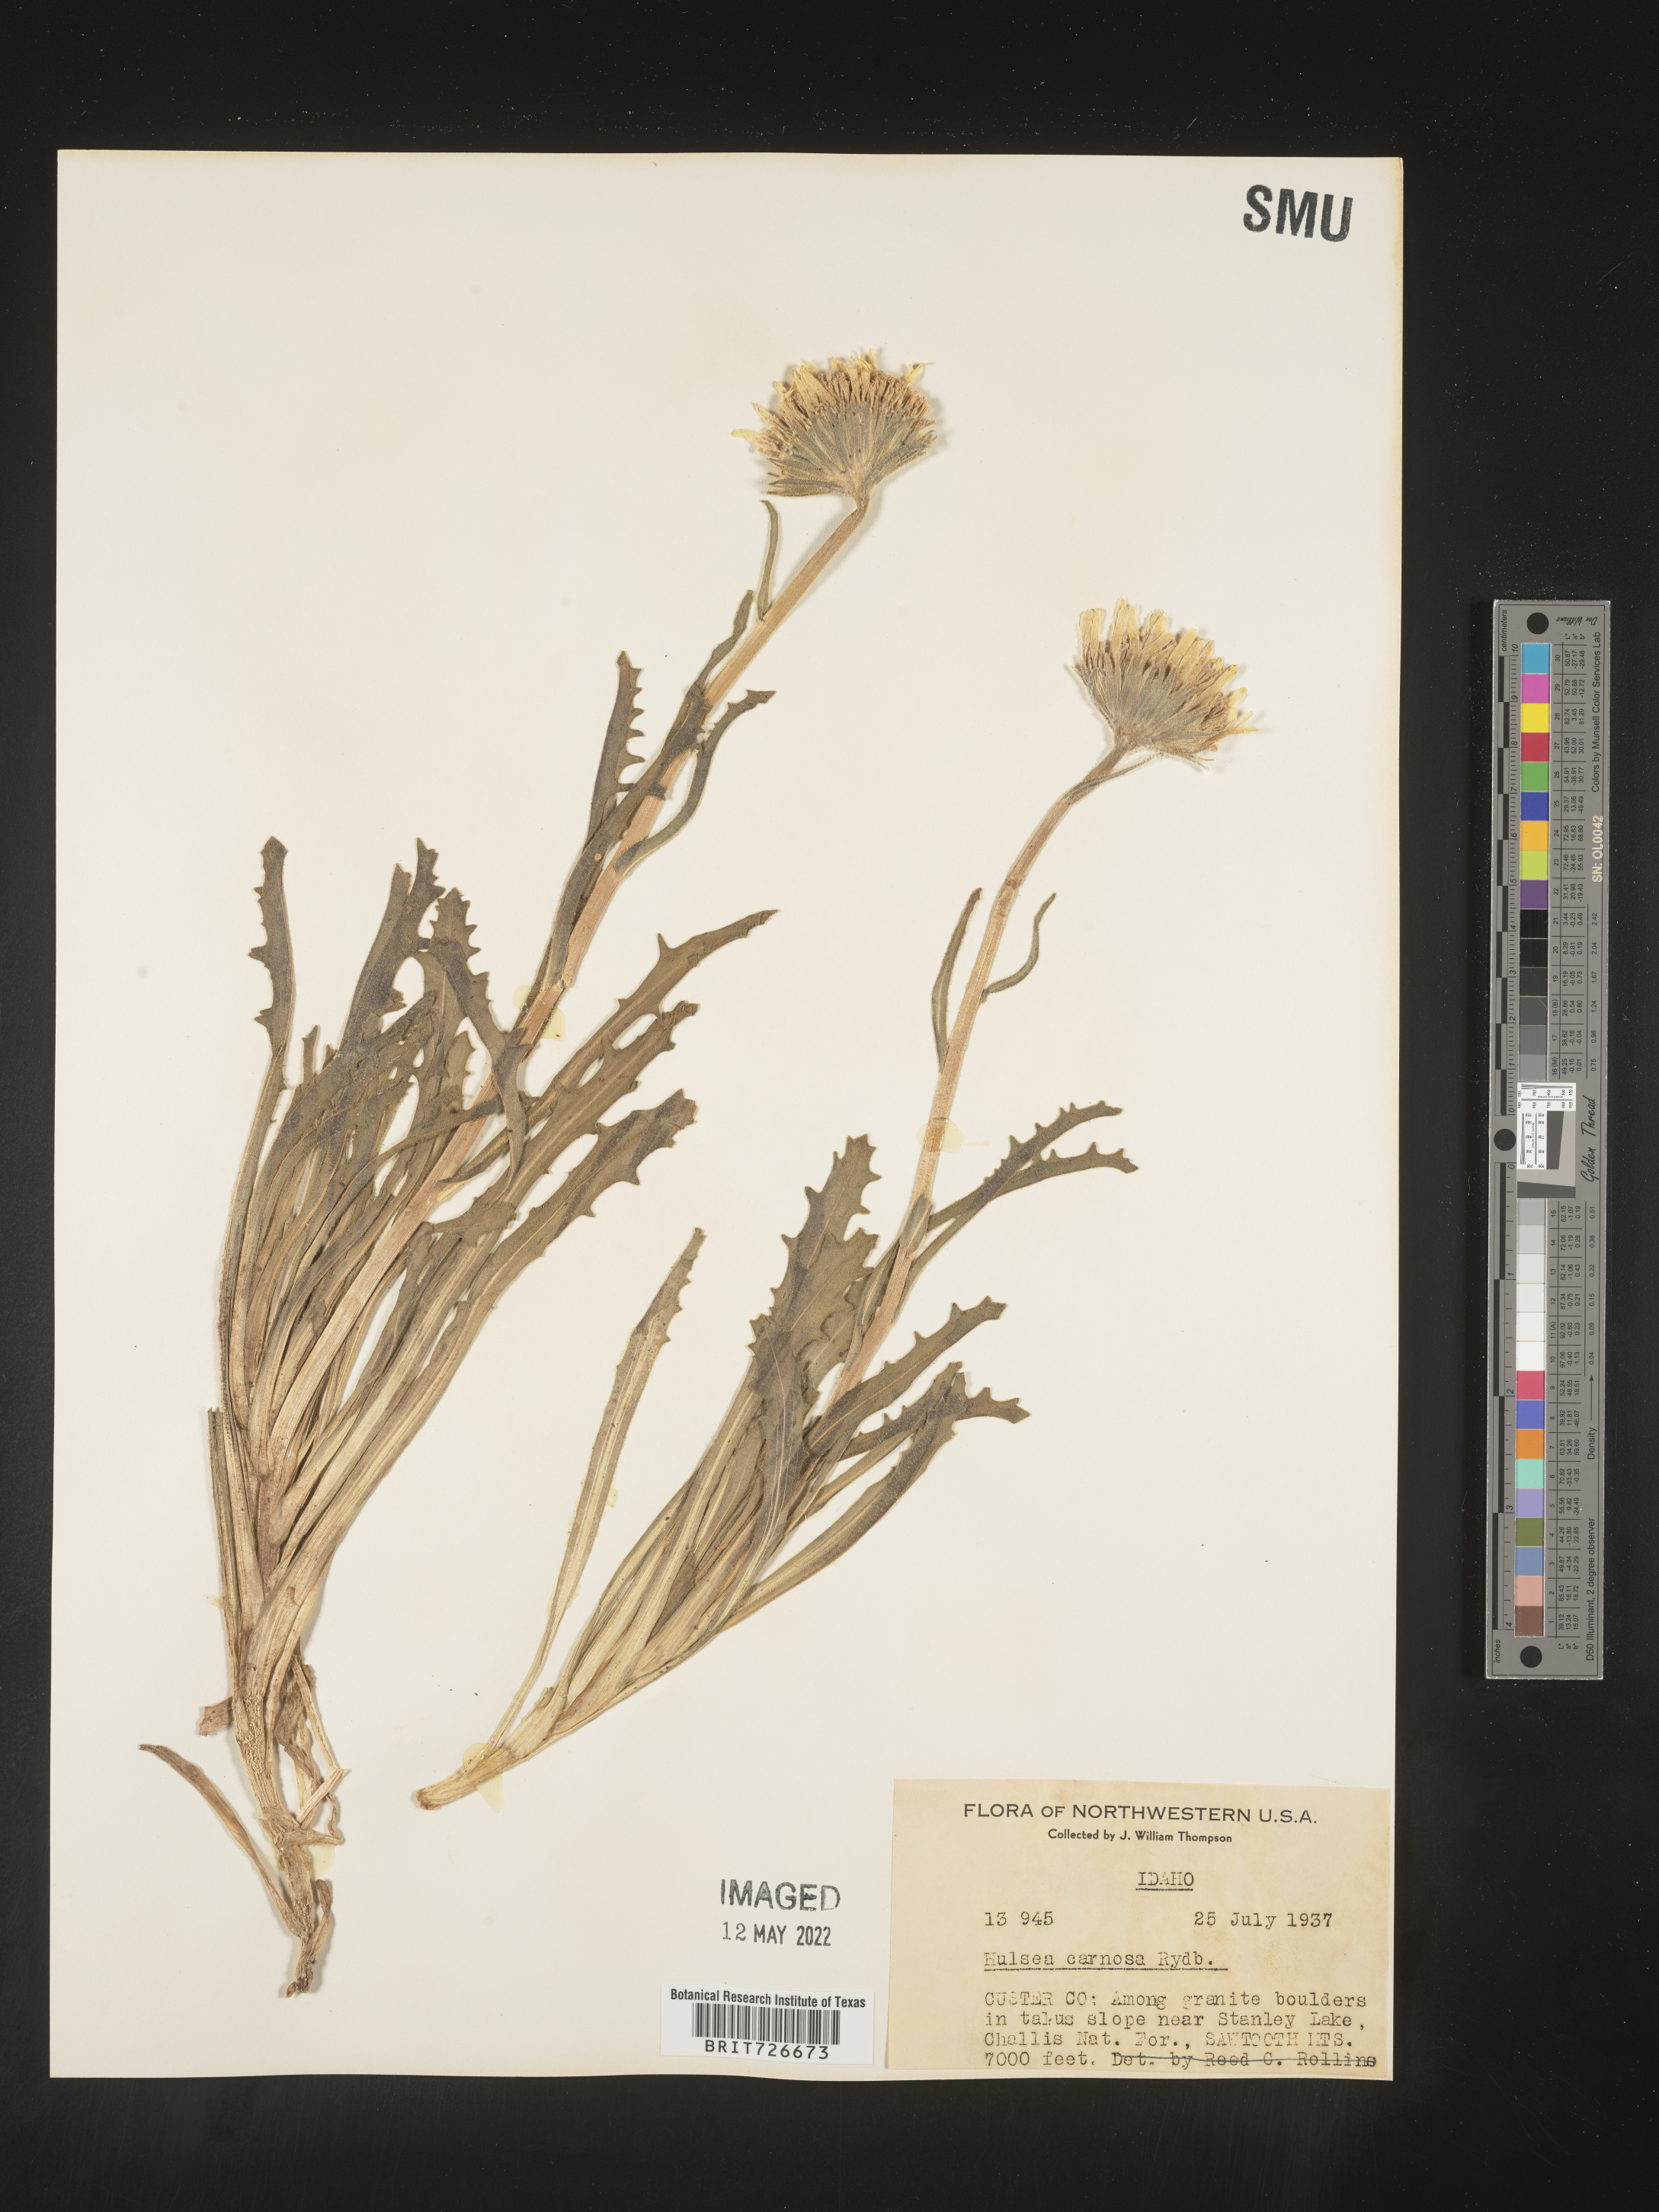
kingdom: Plantae
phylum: Tracheophyta
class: Magnoliopsida
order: Asterales
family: Asteraceae
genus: Hulsea
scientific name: Hulsea
